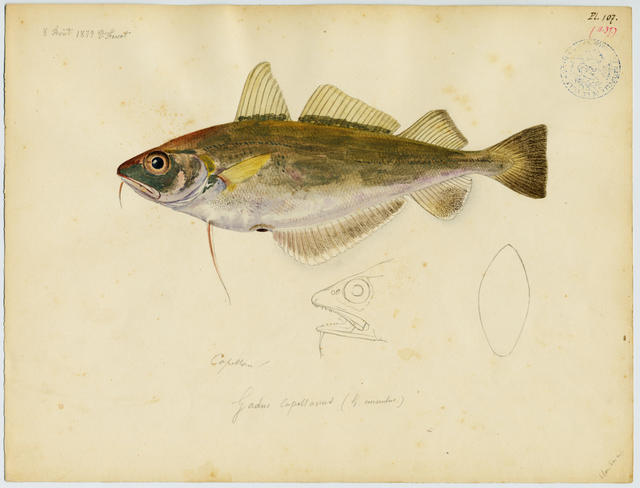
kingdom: Animalia
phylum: Chordata
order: Gadiformes
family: Gadidae
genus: Trisopterus
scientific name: Trisopterus capelanus
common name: Capelin
